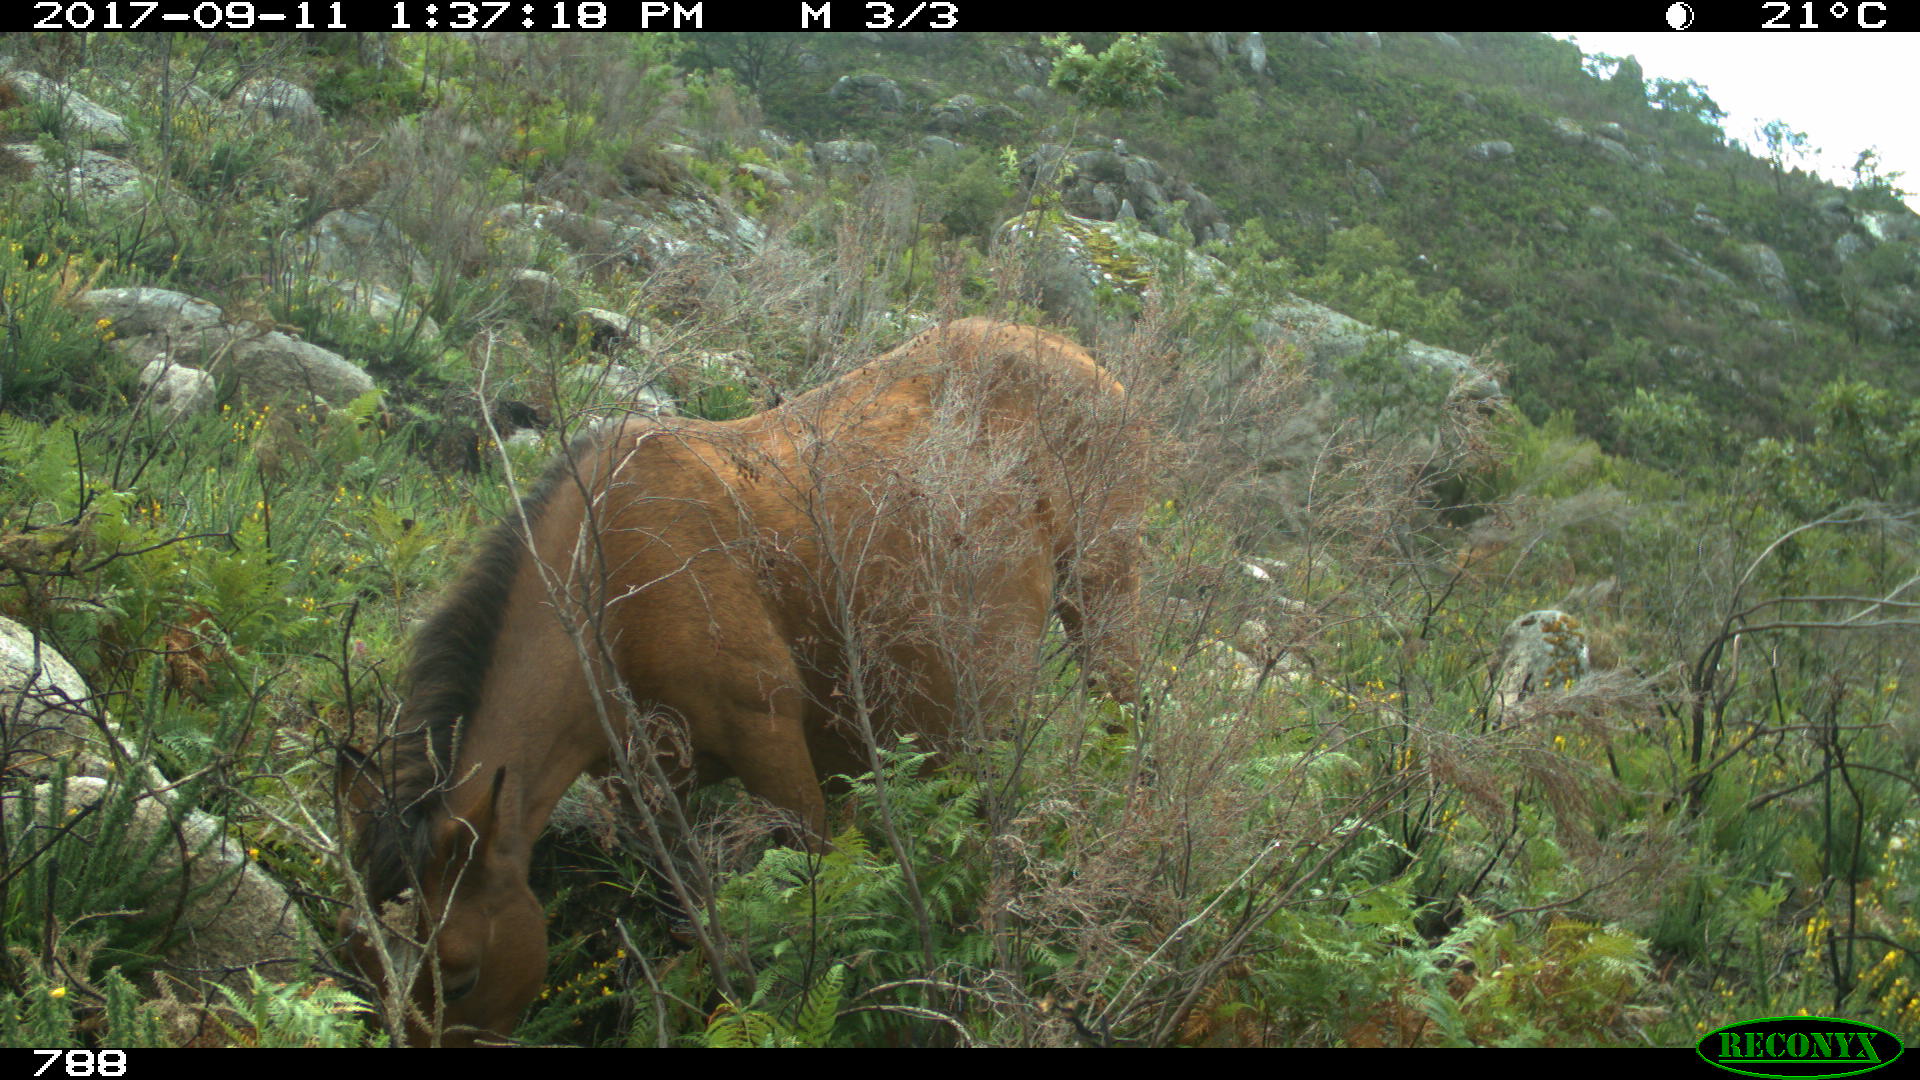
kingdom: Animalia
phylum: Chordata
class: Mammalia
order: Perissodactyla
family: Equidae
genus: Equus
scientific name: Equus caballus
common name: Horse
